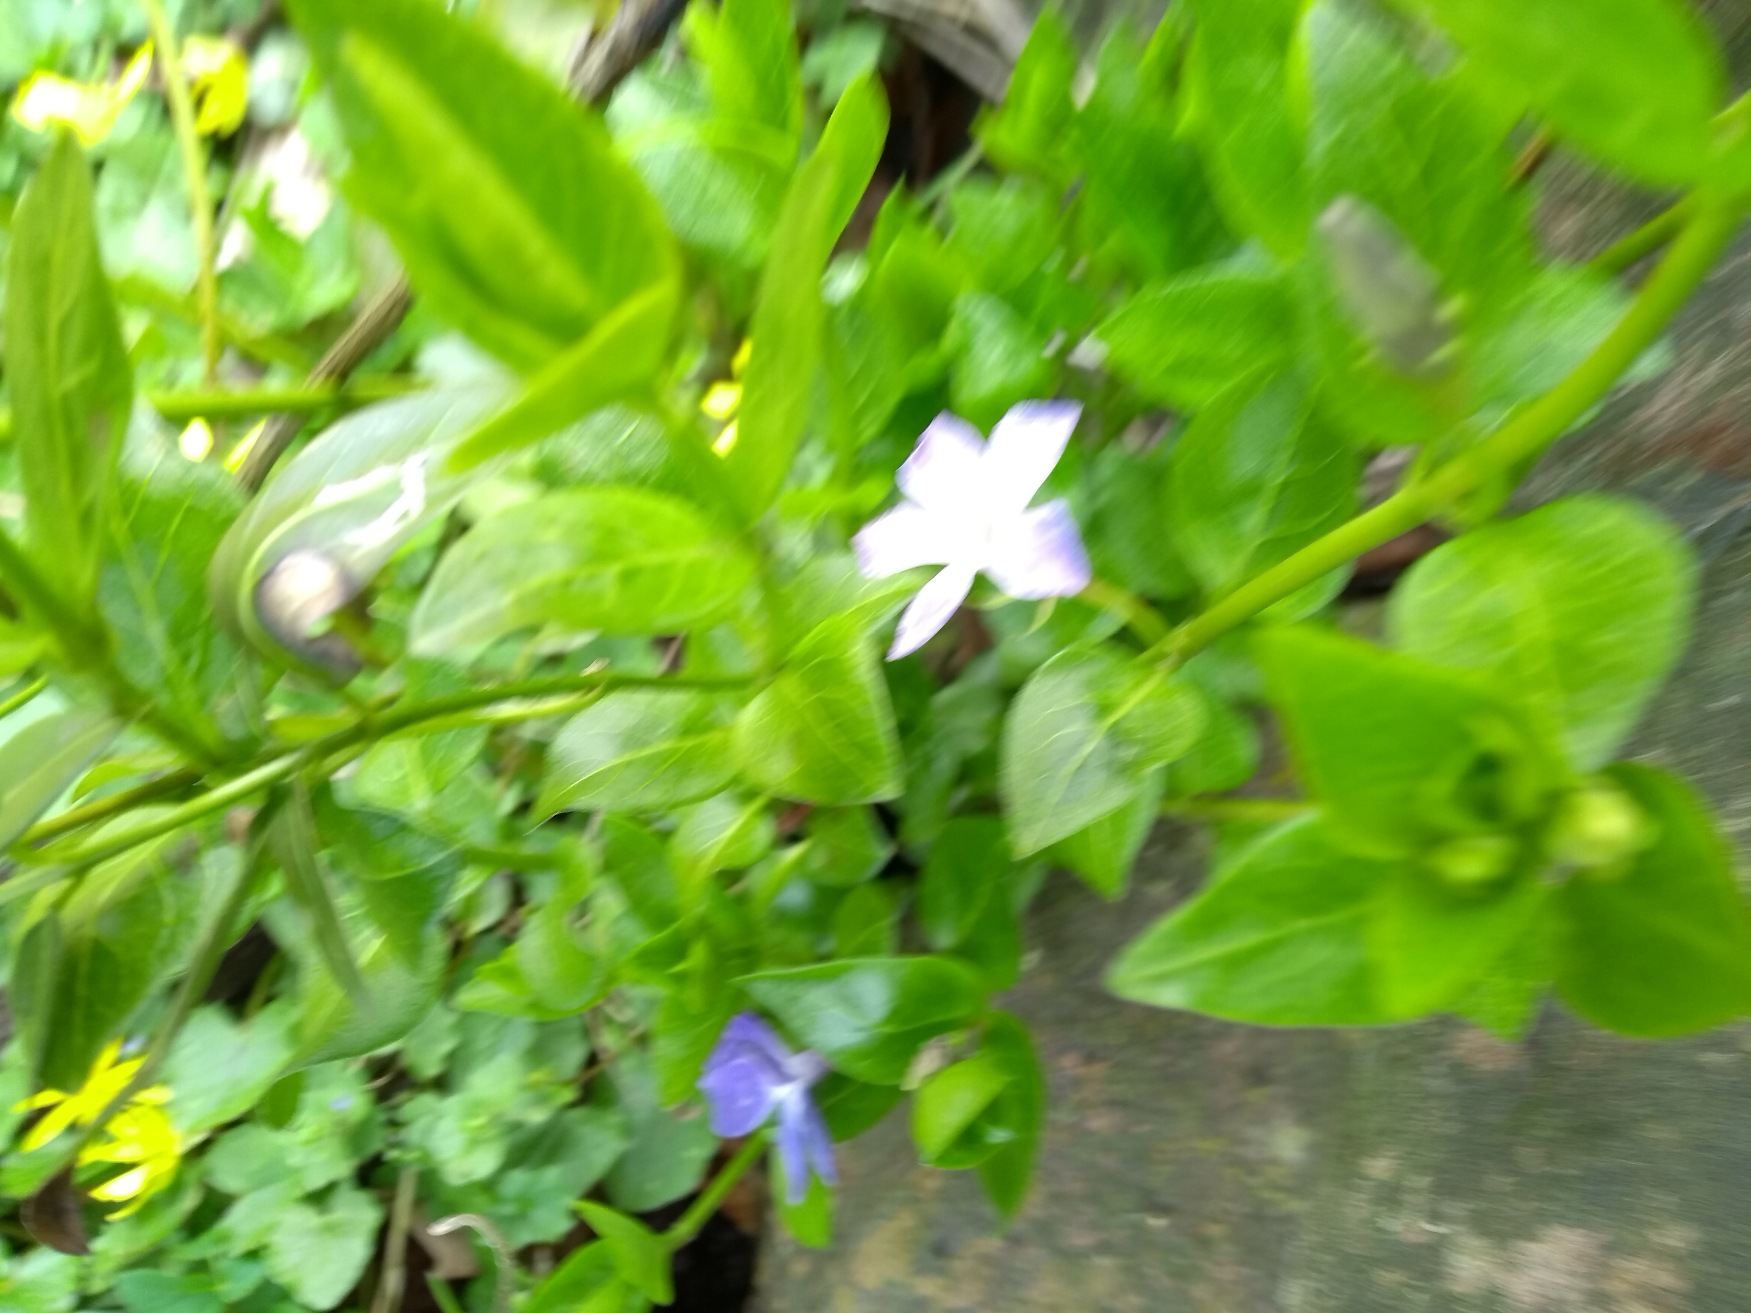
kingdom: Plantae
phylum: Tracheophyta
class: Magnoliopsida
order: Gentianales
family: Apocynaceae
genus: Vinca
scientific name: Vinca major
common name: Stor singrøn
